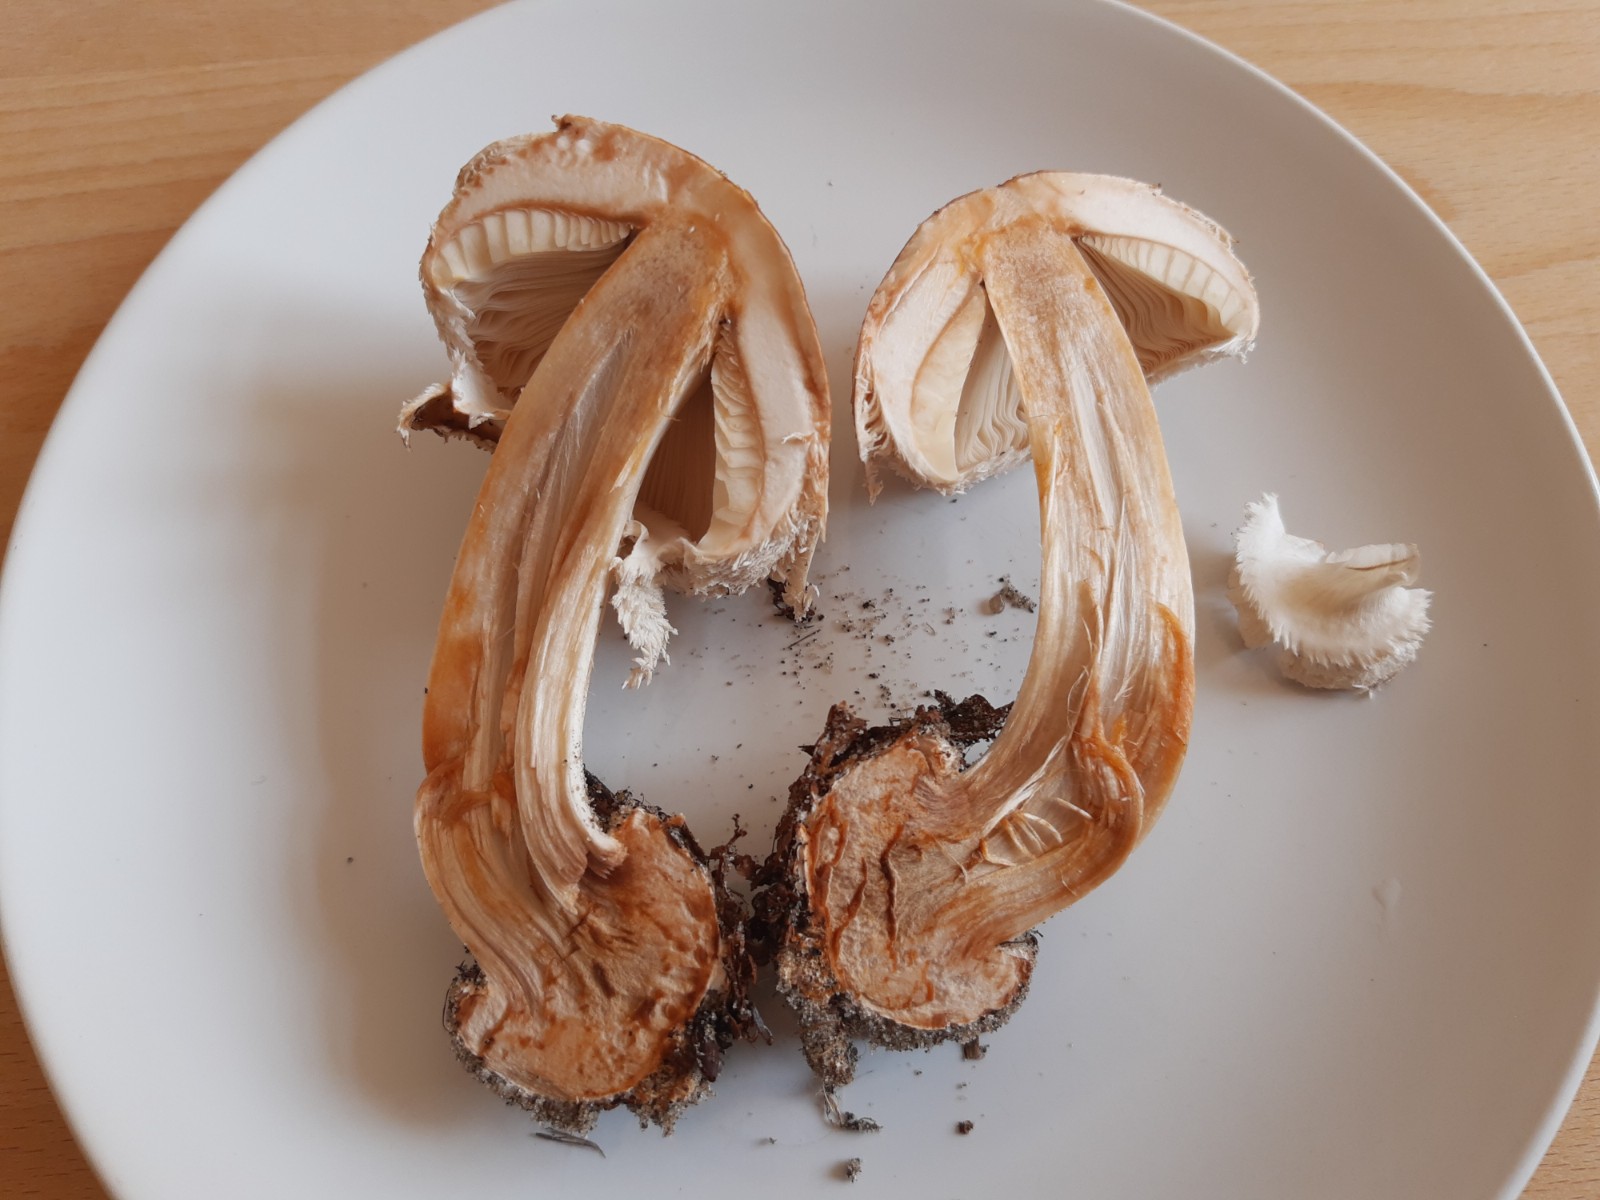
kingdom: Fungi
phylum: Basidiomycota
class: Agaricomycetes
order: Agaricales
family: Agaricaceae
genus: Chlorophyllum
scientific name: Chlorophyllum rhacodes
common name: ægte rabarberhat
